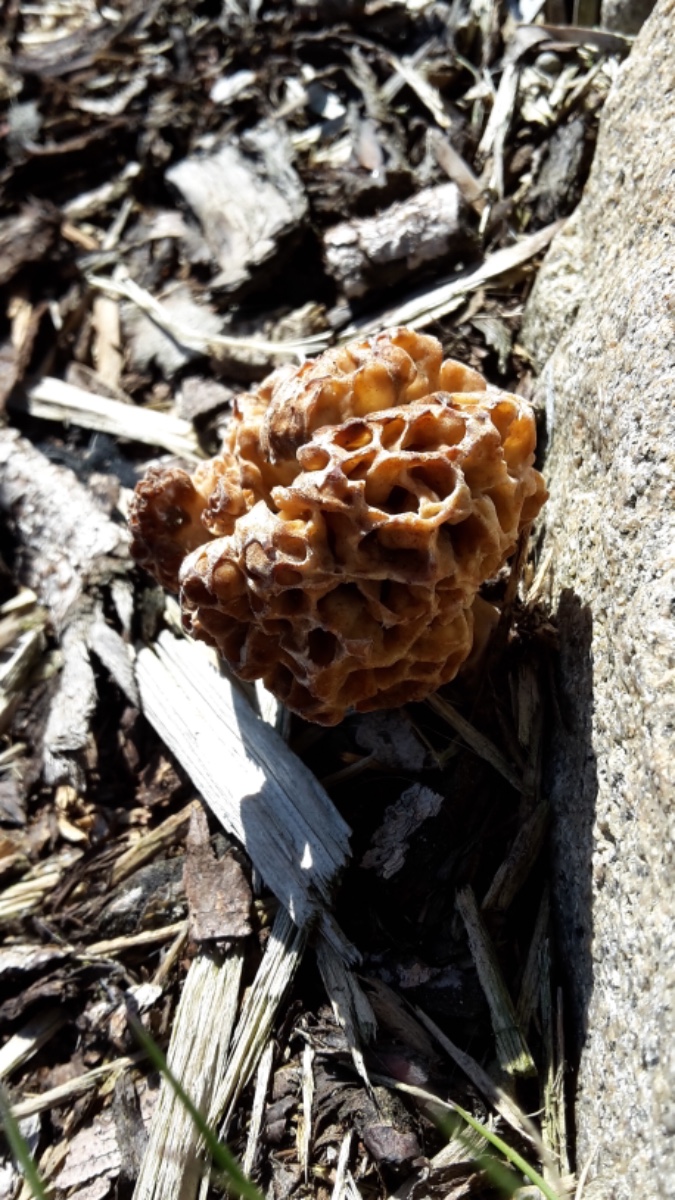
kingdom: Fungi
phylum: Ascomycota
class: Pezizomycetes
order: Pezizales
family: Morchellaceae
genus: Morchella
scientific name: Morchella esculenta
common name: almindelig morkel
